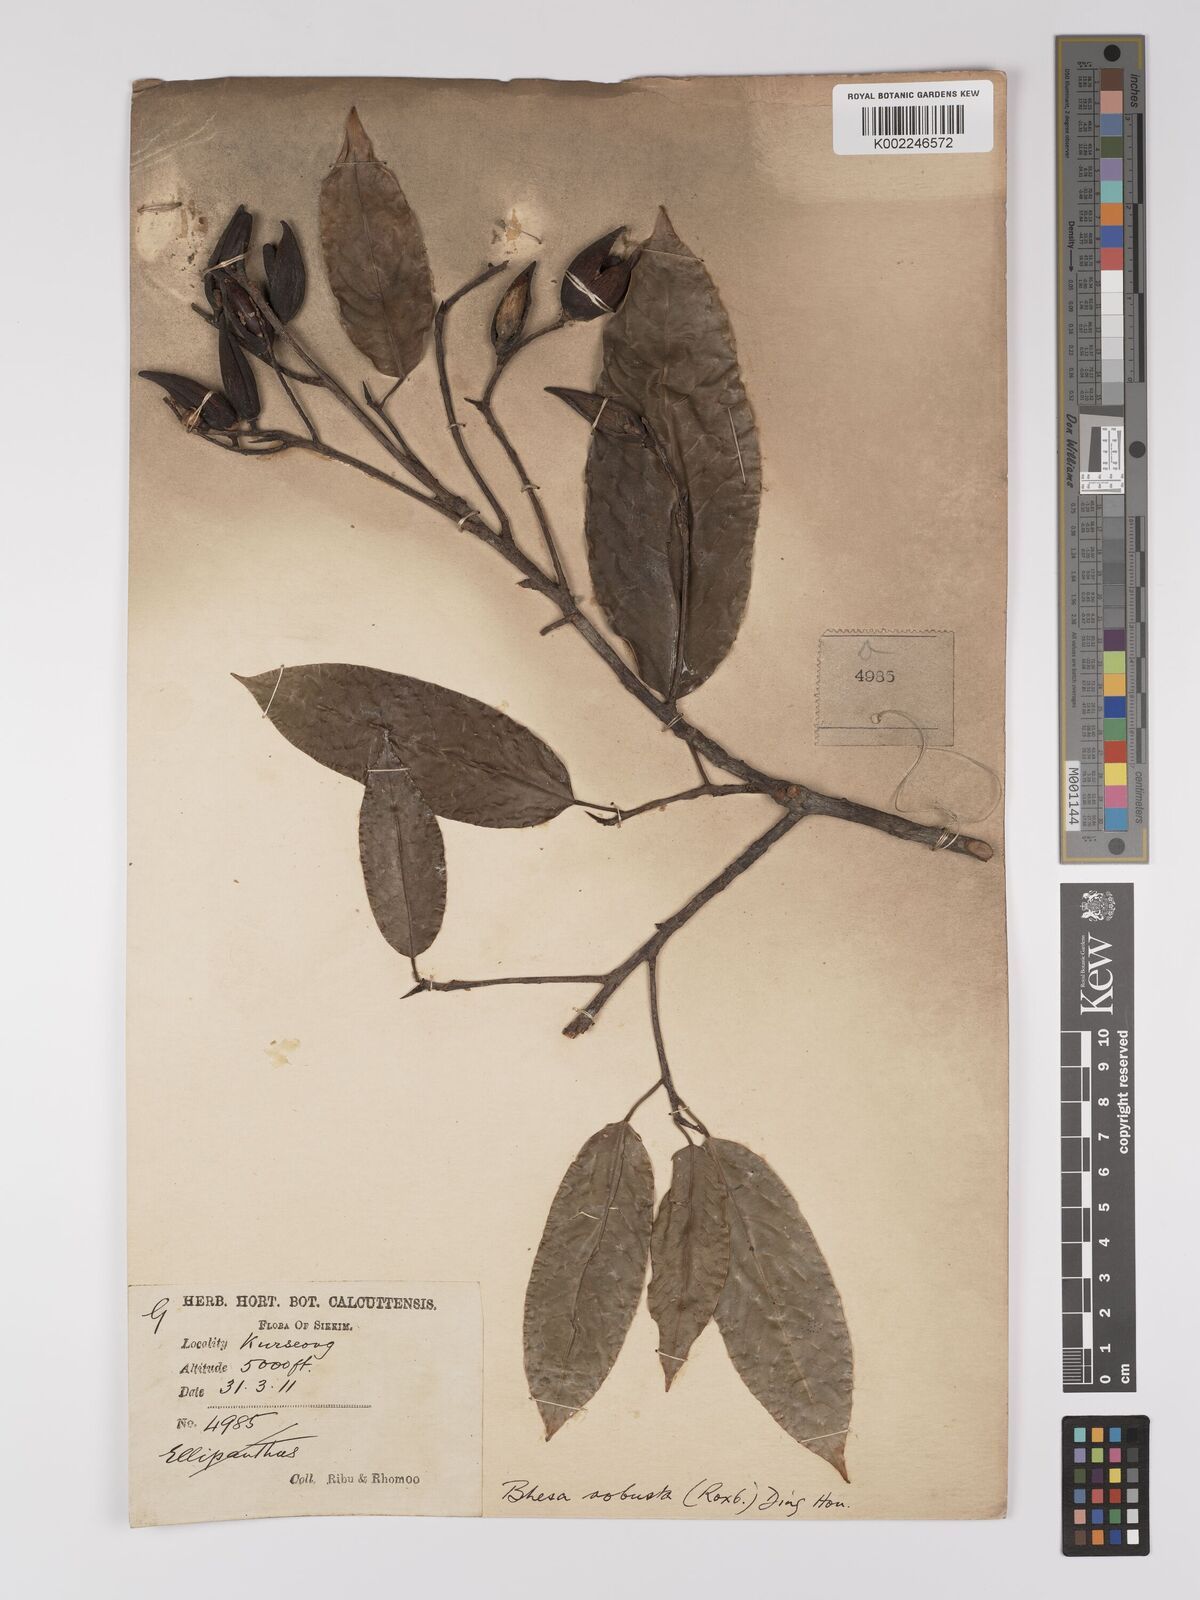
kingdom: Plantae
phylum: Tracheophyta
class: Magnoliopsida
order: Malpighiales
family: Centroplacaceae
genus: Bhesa
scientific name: Bhesa robusta
